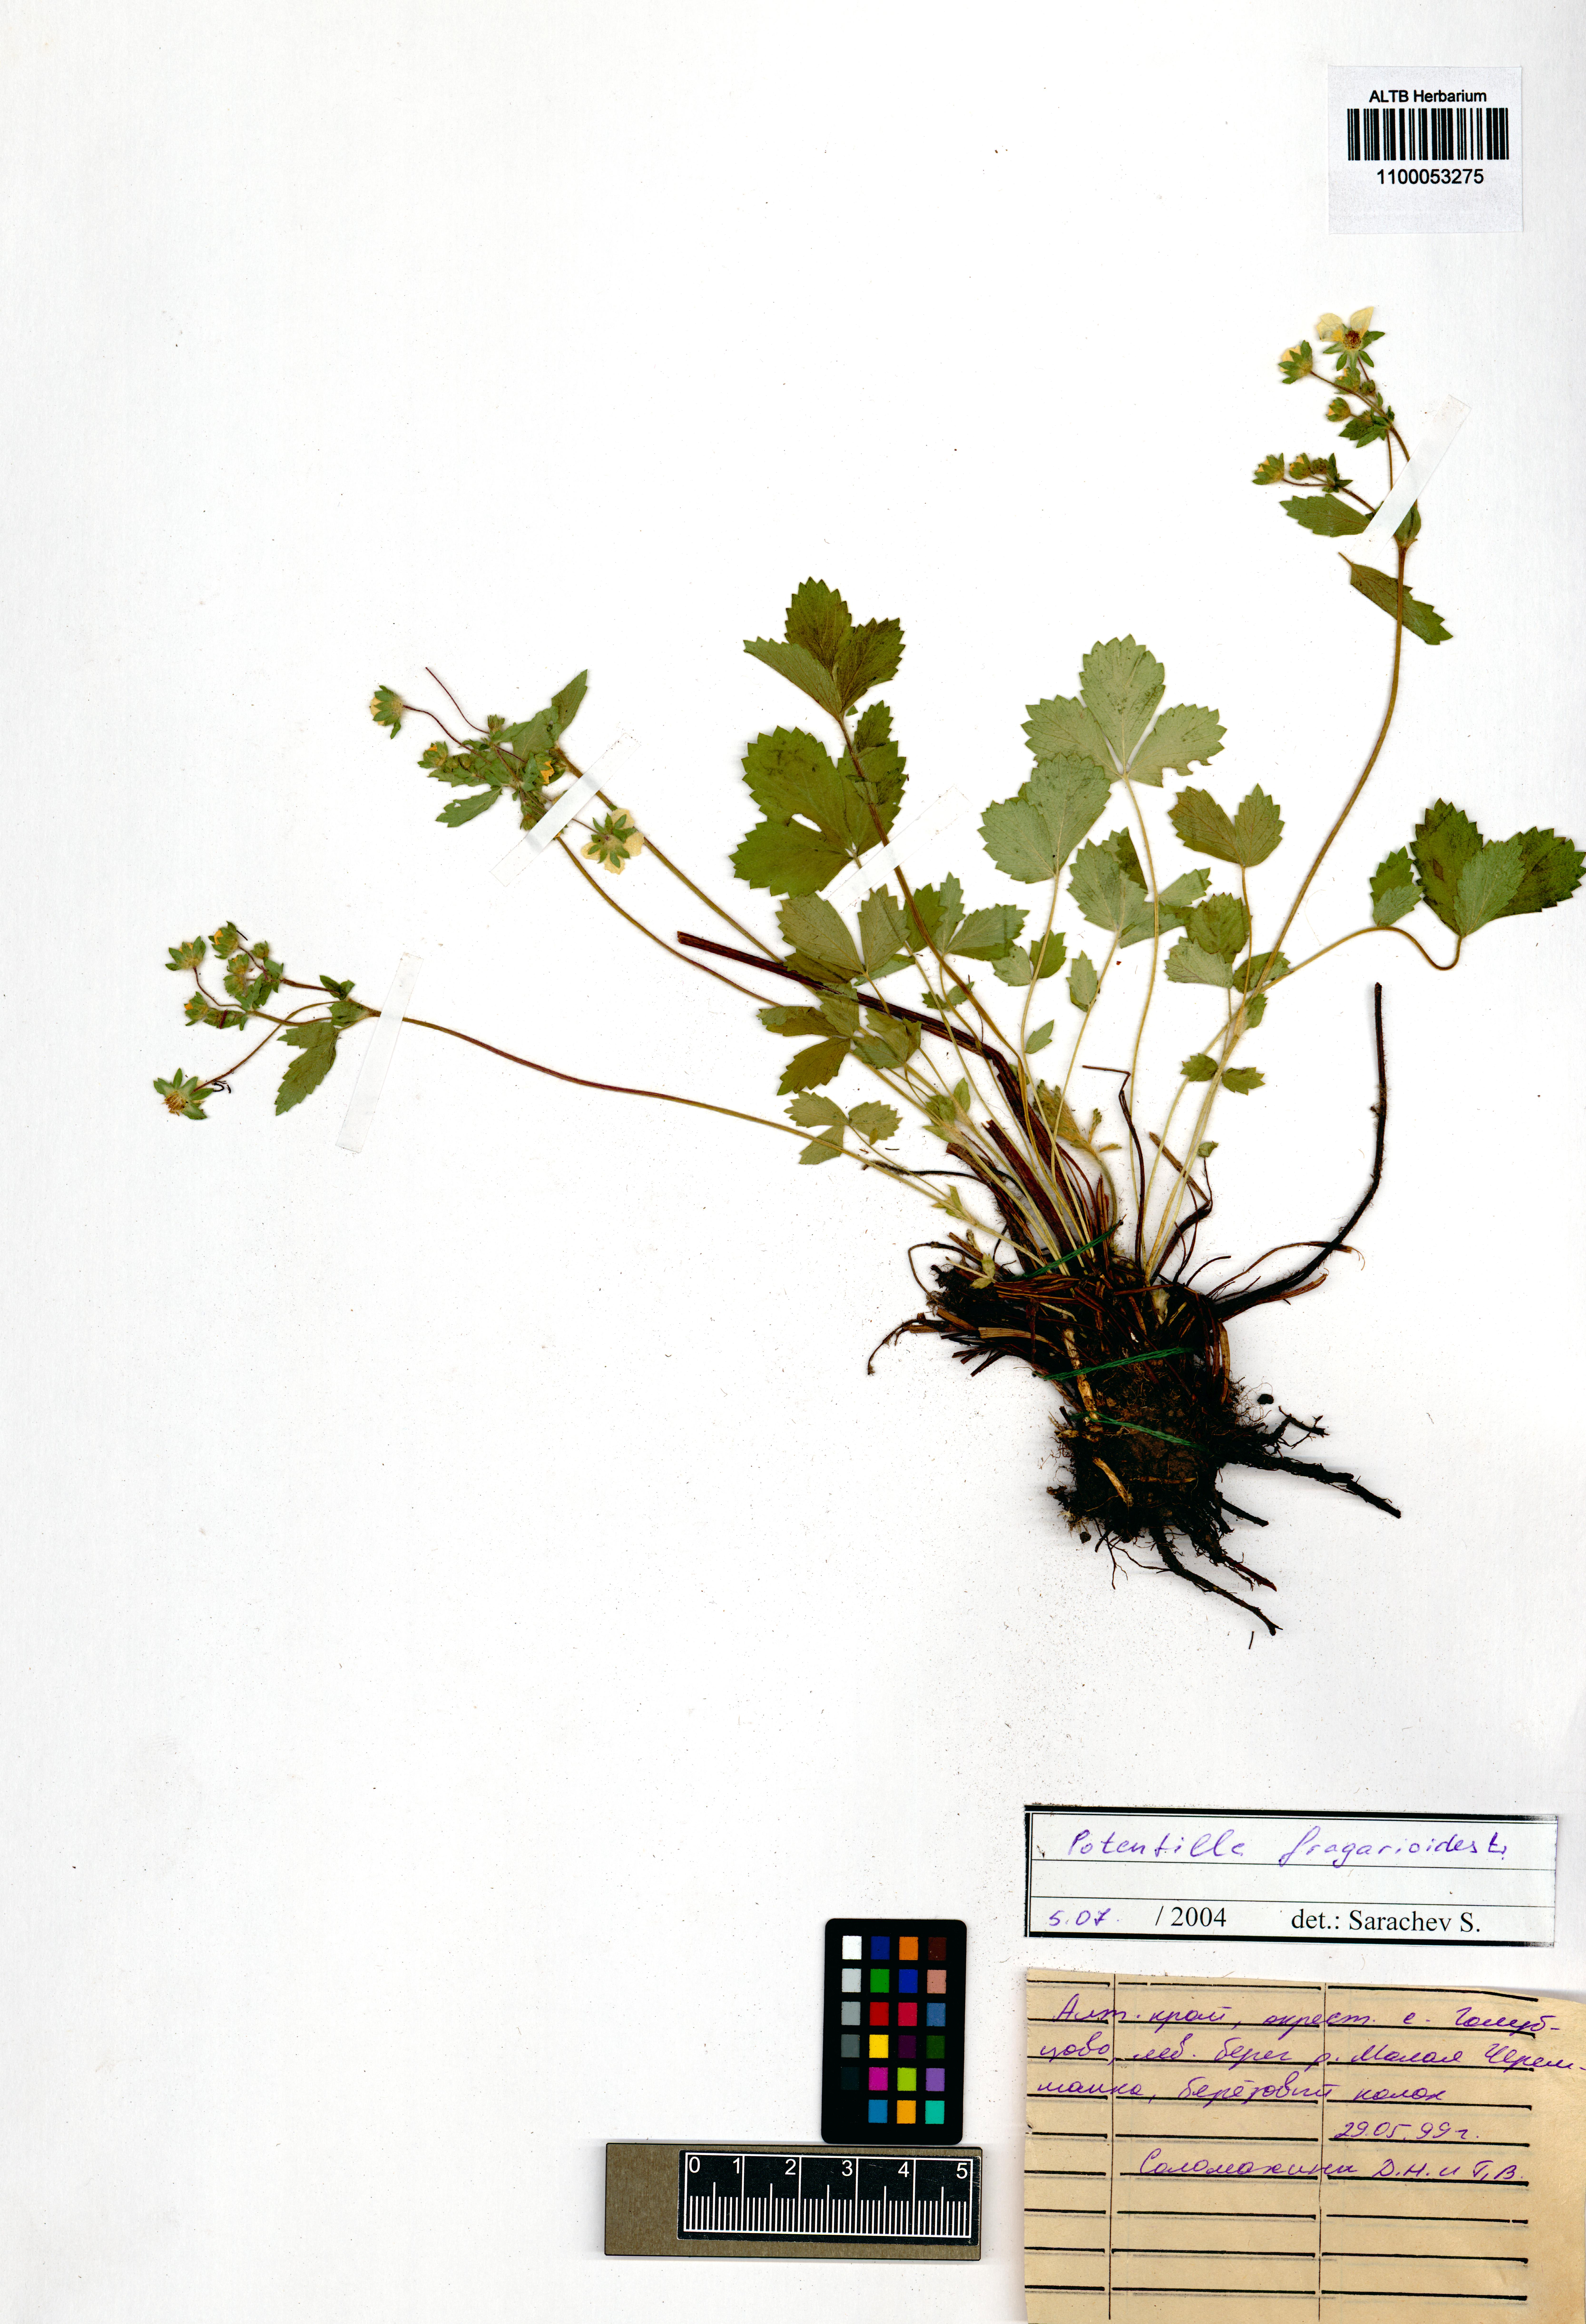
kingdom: Plantae
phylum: Tracheophyta
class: Magnoliopsida
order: Rosales
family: Rosaceae
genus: Potentilla
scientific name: Potentilla fragarioides
